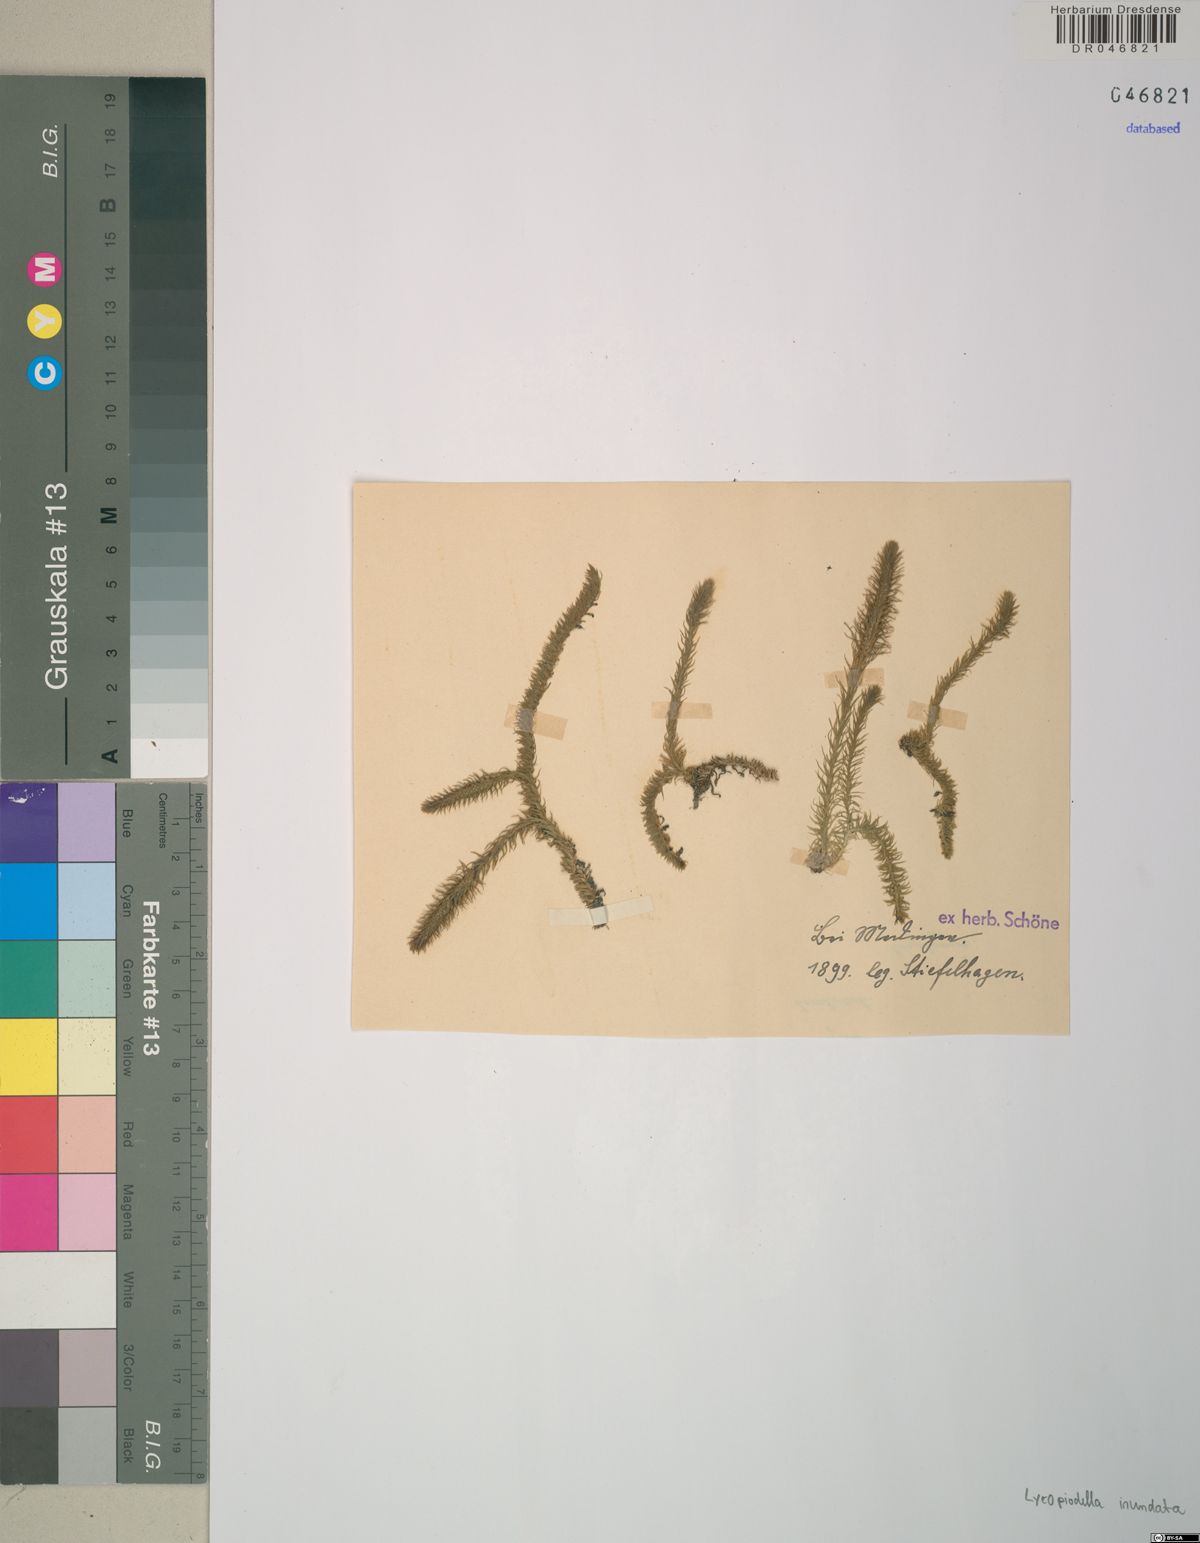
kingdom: Plantae
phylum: Tracheophyta
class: Lycopodiopsida
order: Lycopodiales
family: Lycopodiaceae
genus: Lycopodiella
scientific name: Lycopodiella inundata
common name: Marsh clubmoss
